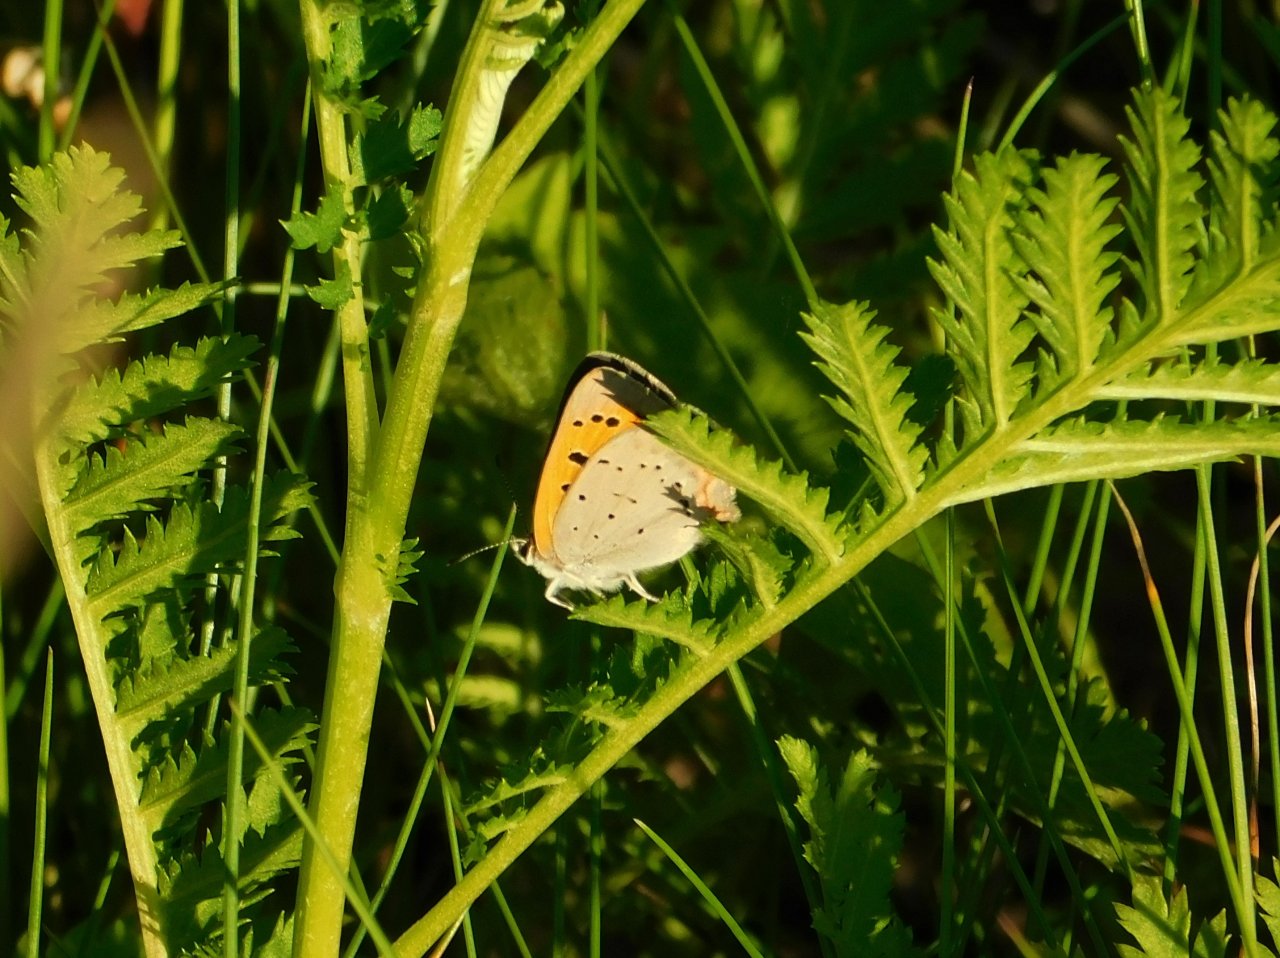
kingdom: Animalia
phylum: Arthropoda
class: Insecta
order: Lepidoptera
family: Lycaenidae
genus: Lycaena
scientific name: Lycaena phlaeas
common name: American Copper
